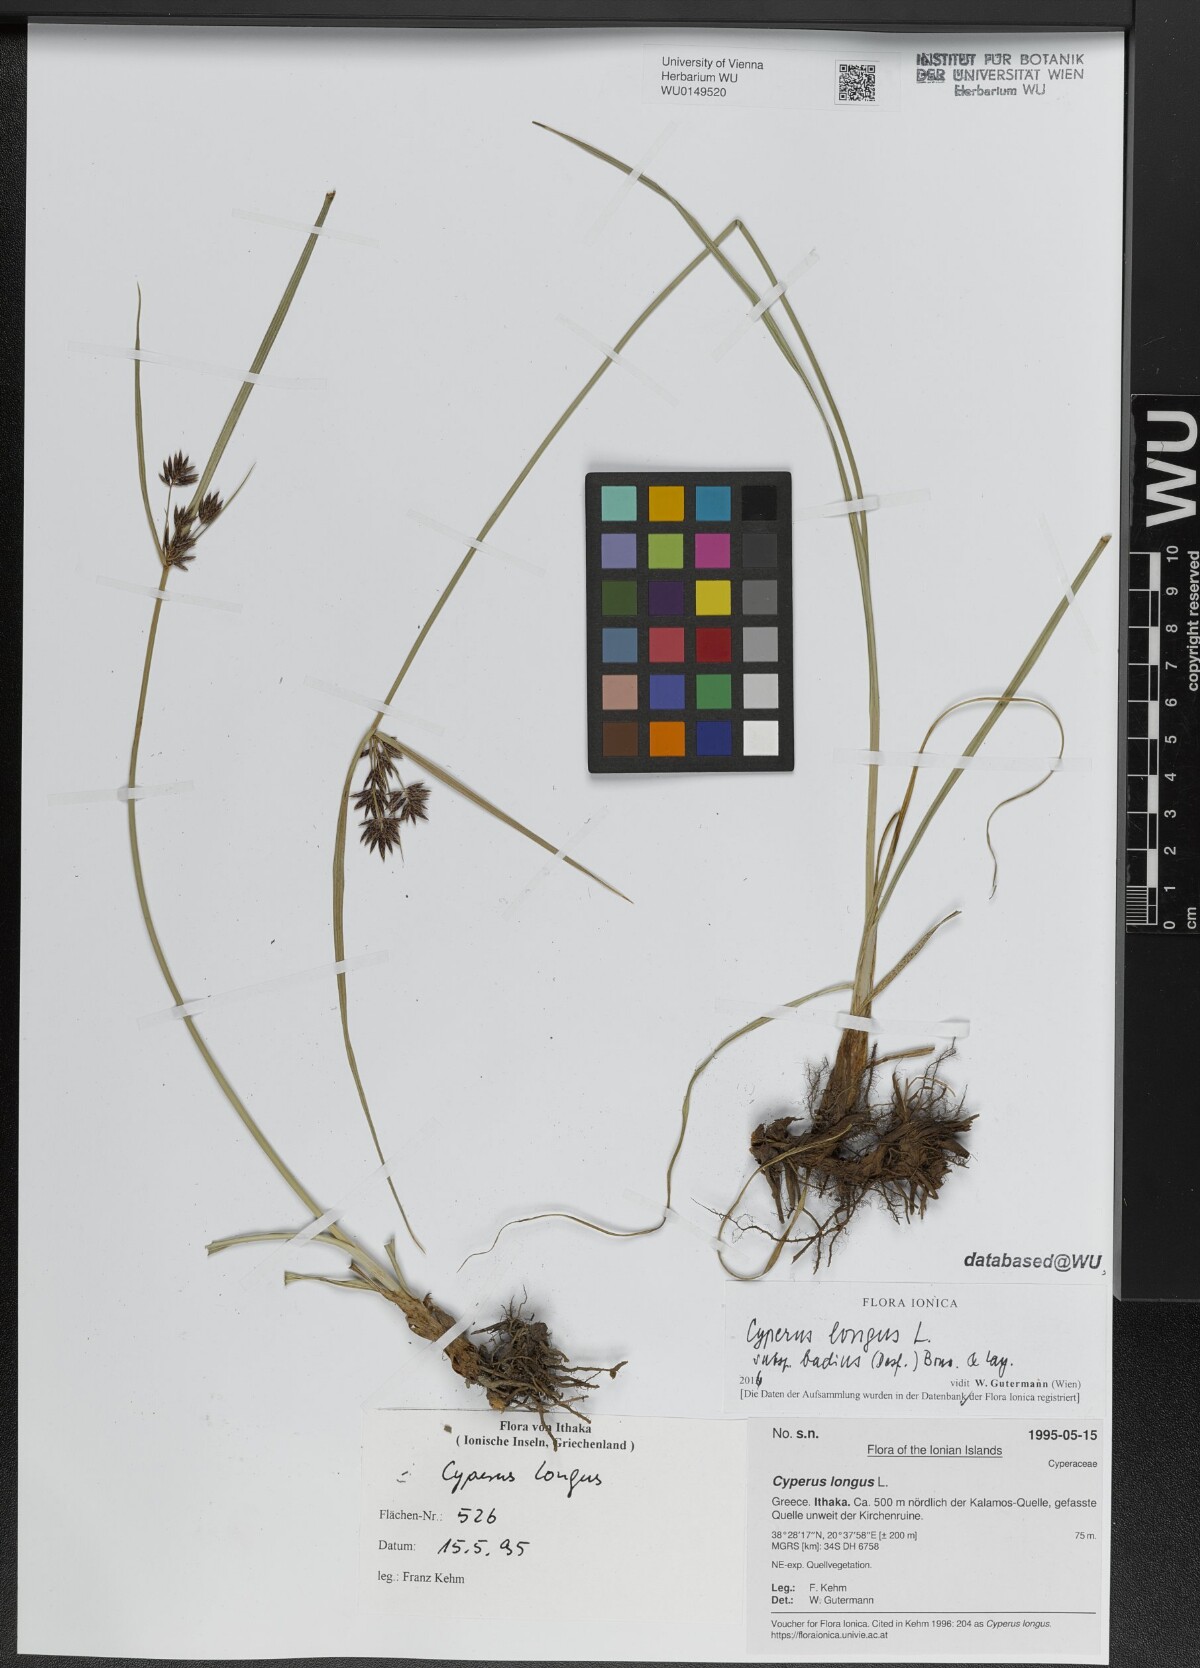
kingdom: Plantae
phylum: Tracheophyta
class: Liliopsida
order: Poales
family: Cyperaceae
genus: Cyperus
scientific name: Cyperus longus
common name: Galingale
